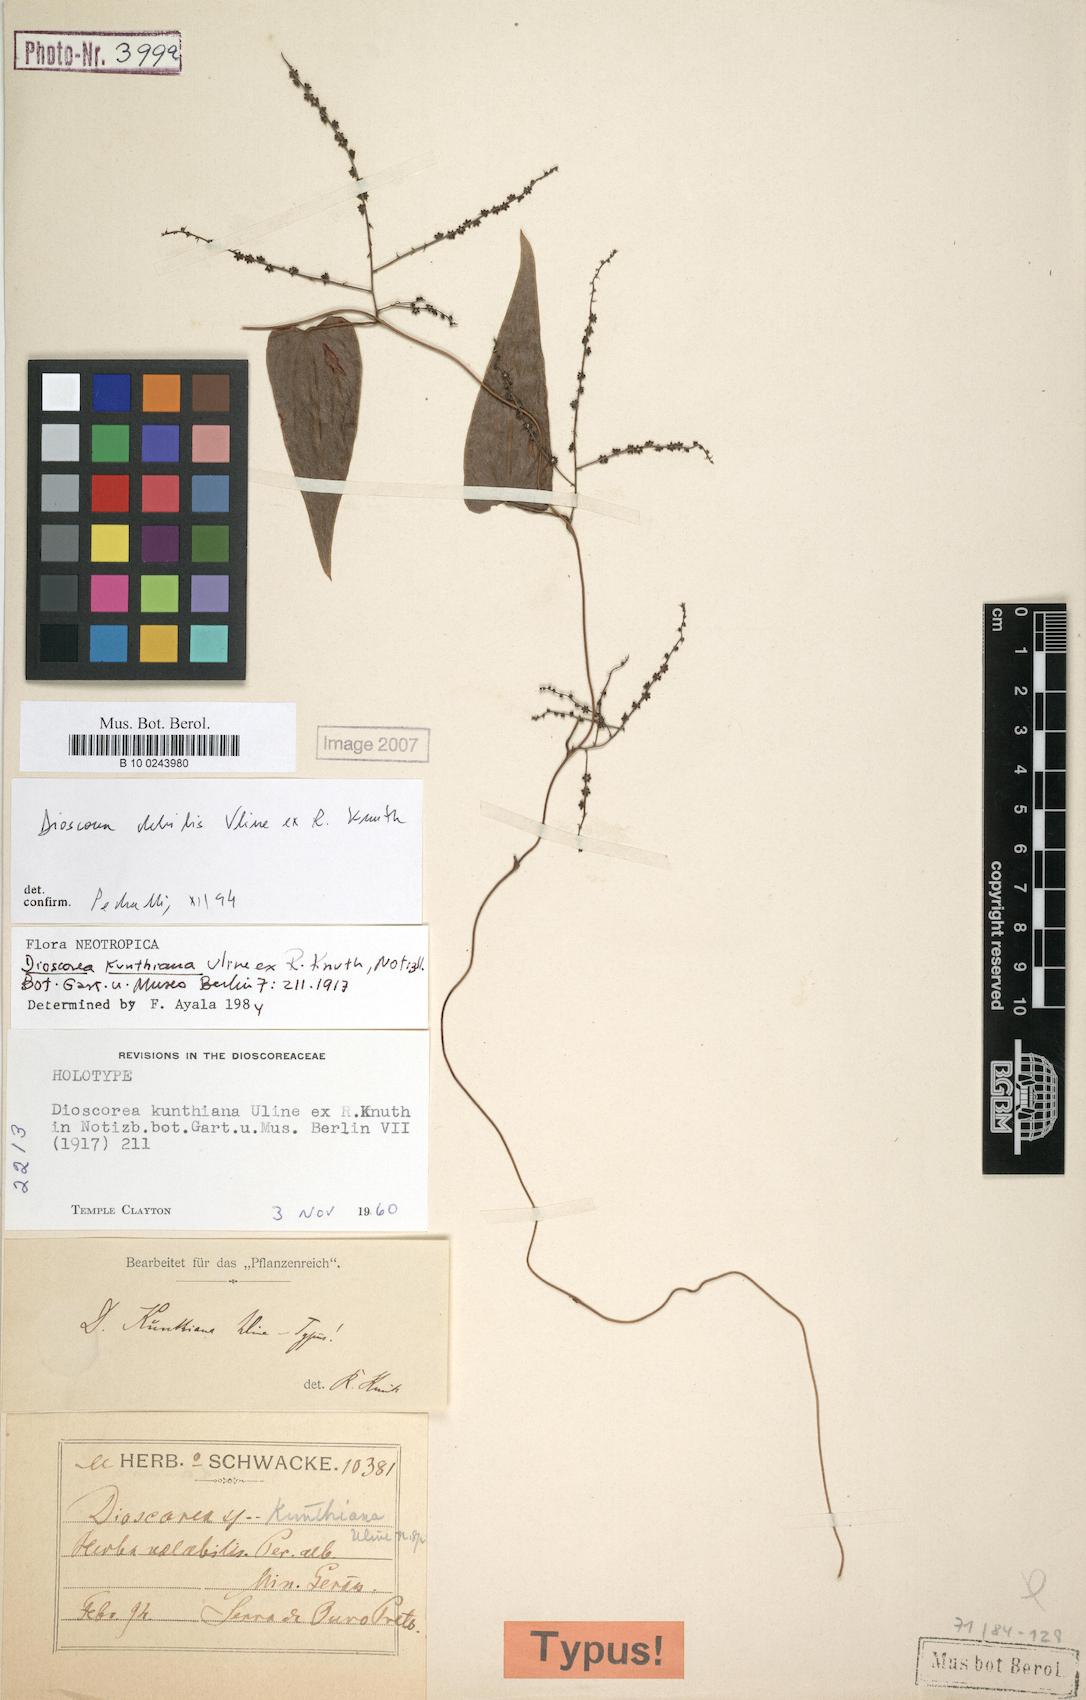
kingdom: Plantae
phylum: Tracheophyta
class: Liliopsida
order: Dioscoreales
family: Dioscoreaceae
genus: Dioscorea
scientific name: Dioscorea debilis
